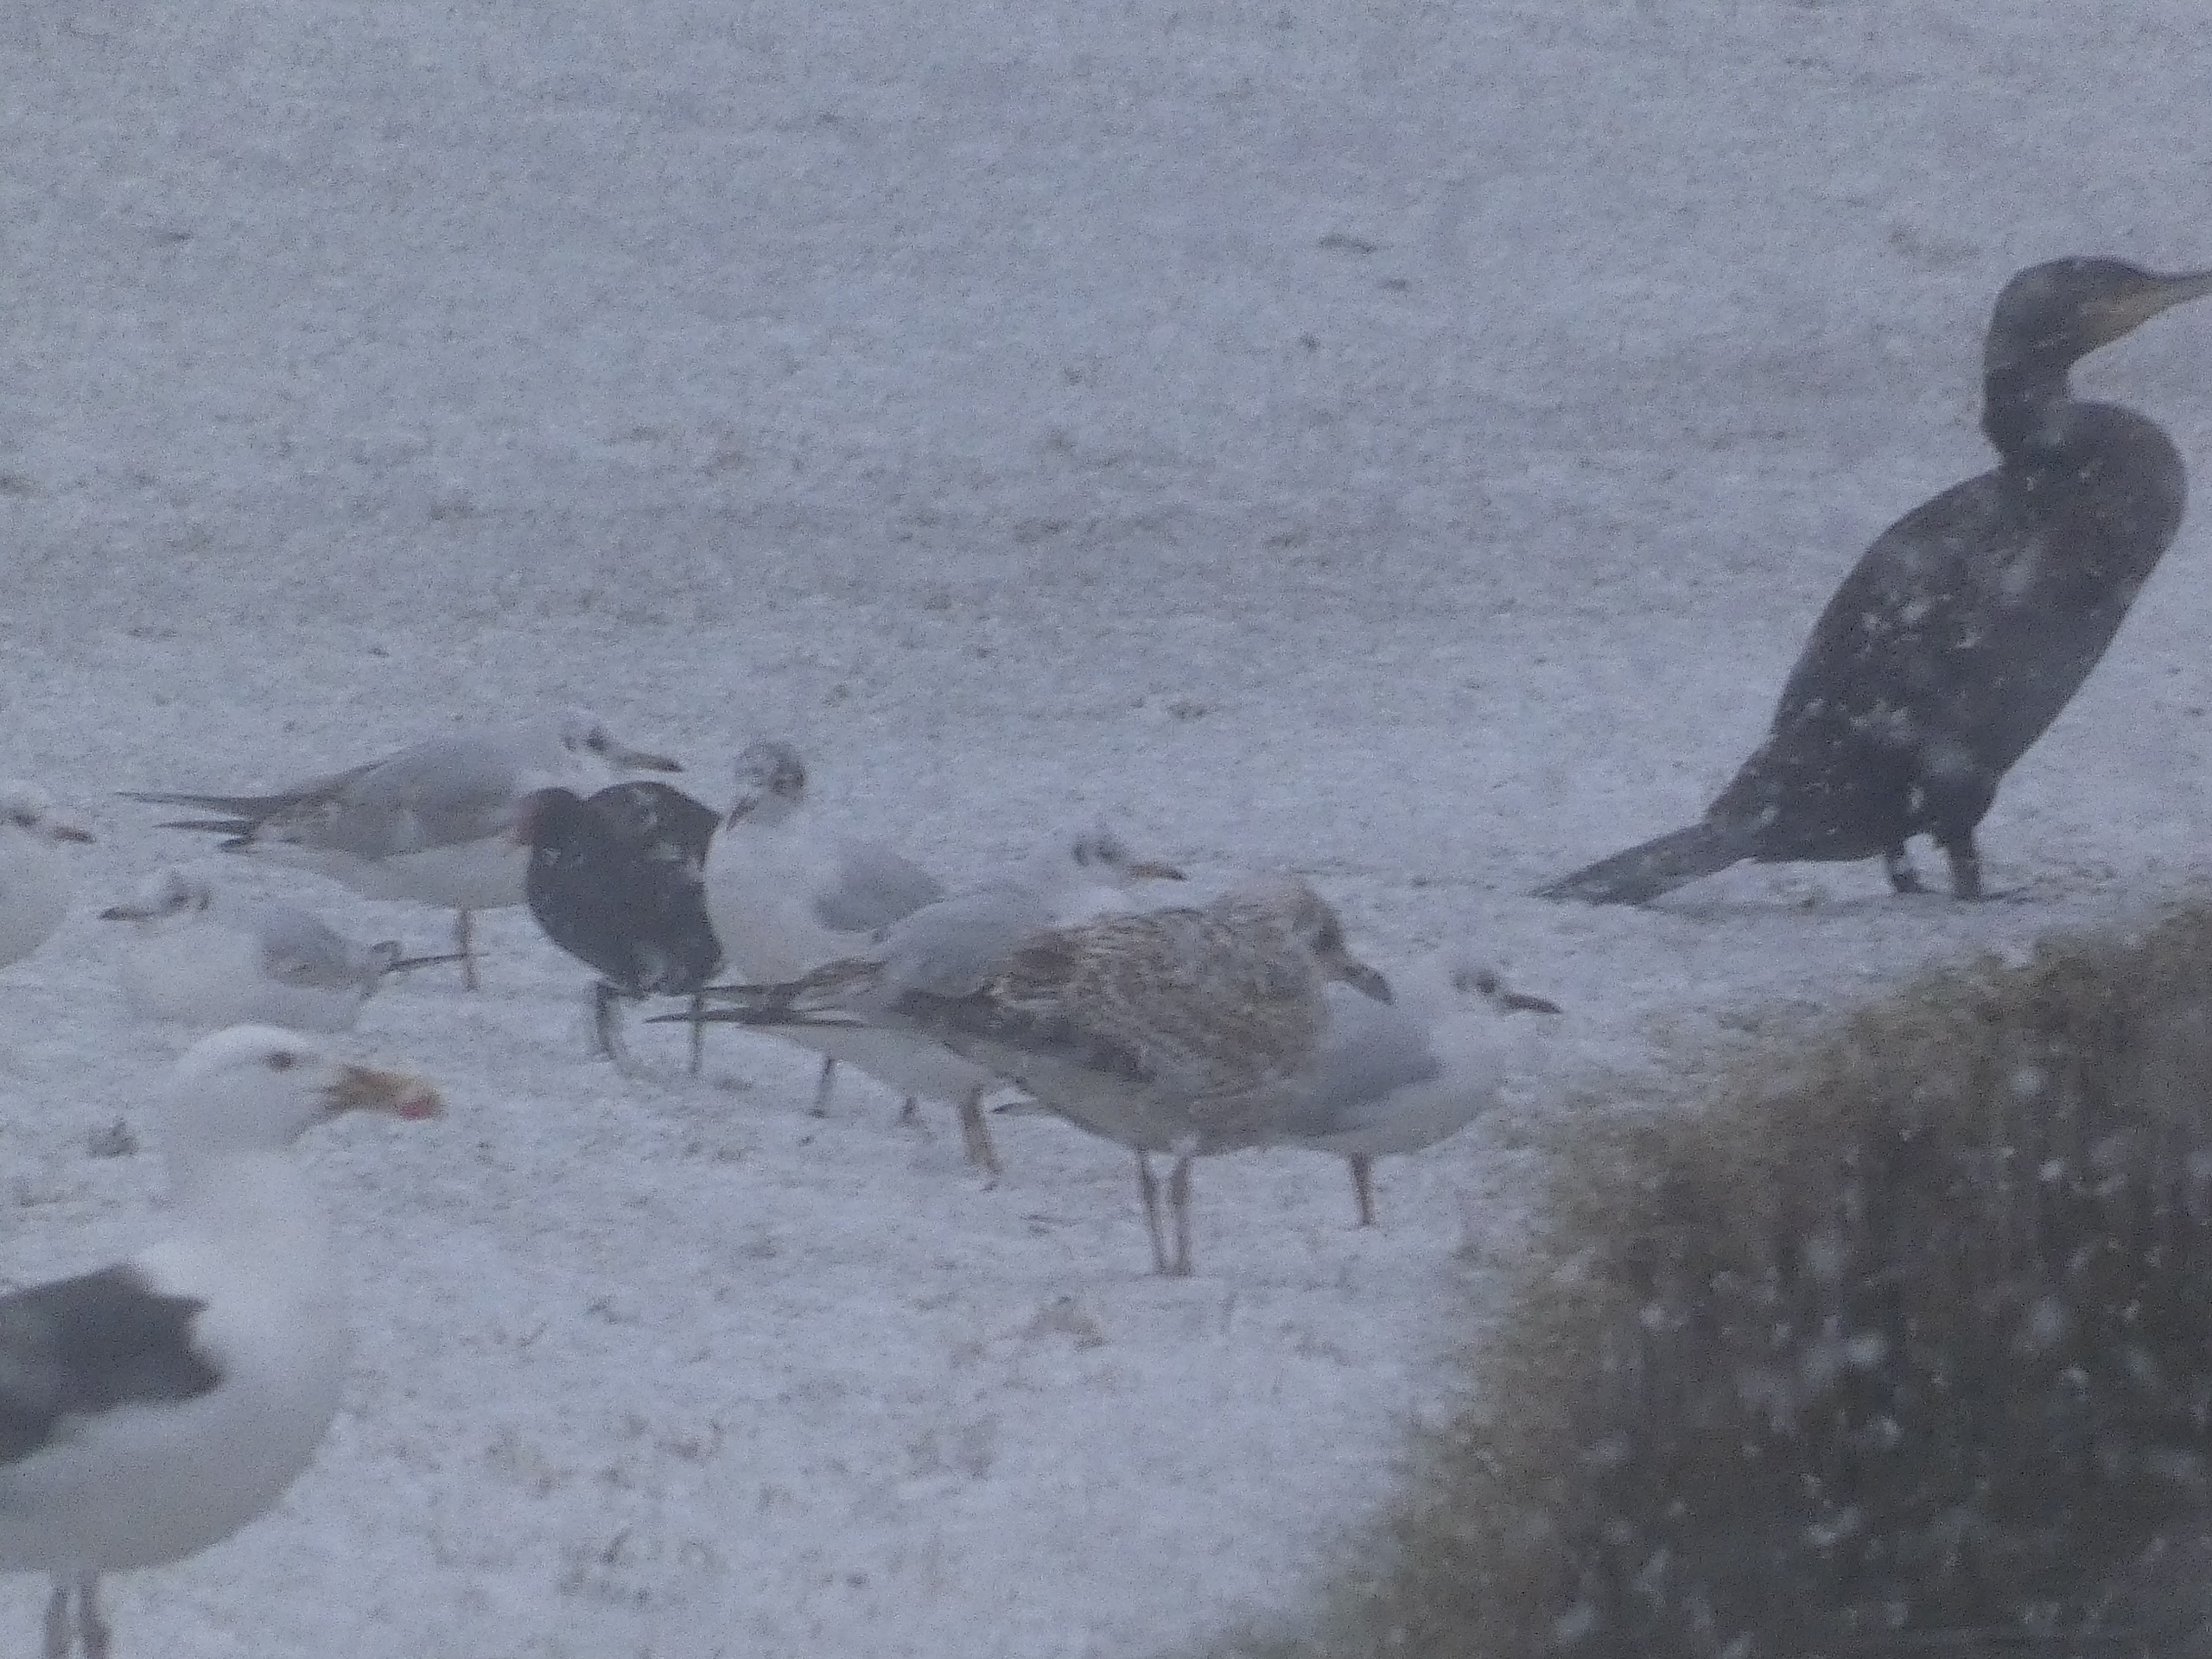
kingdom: Animalia
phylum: Chordata
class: Aves
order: Charadriiformes
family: Laridae
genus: Chroicocephalus
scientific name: Chroicocephalus ridibundus
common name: Hættemåge
